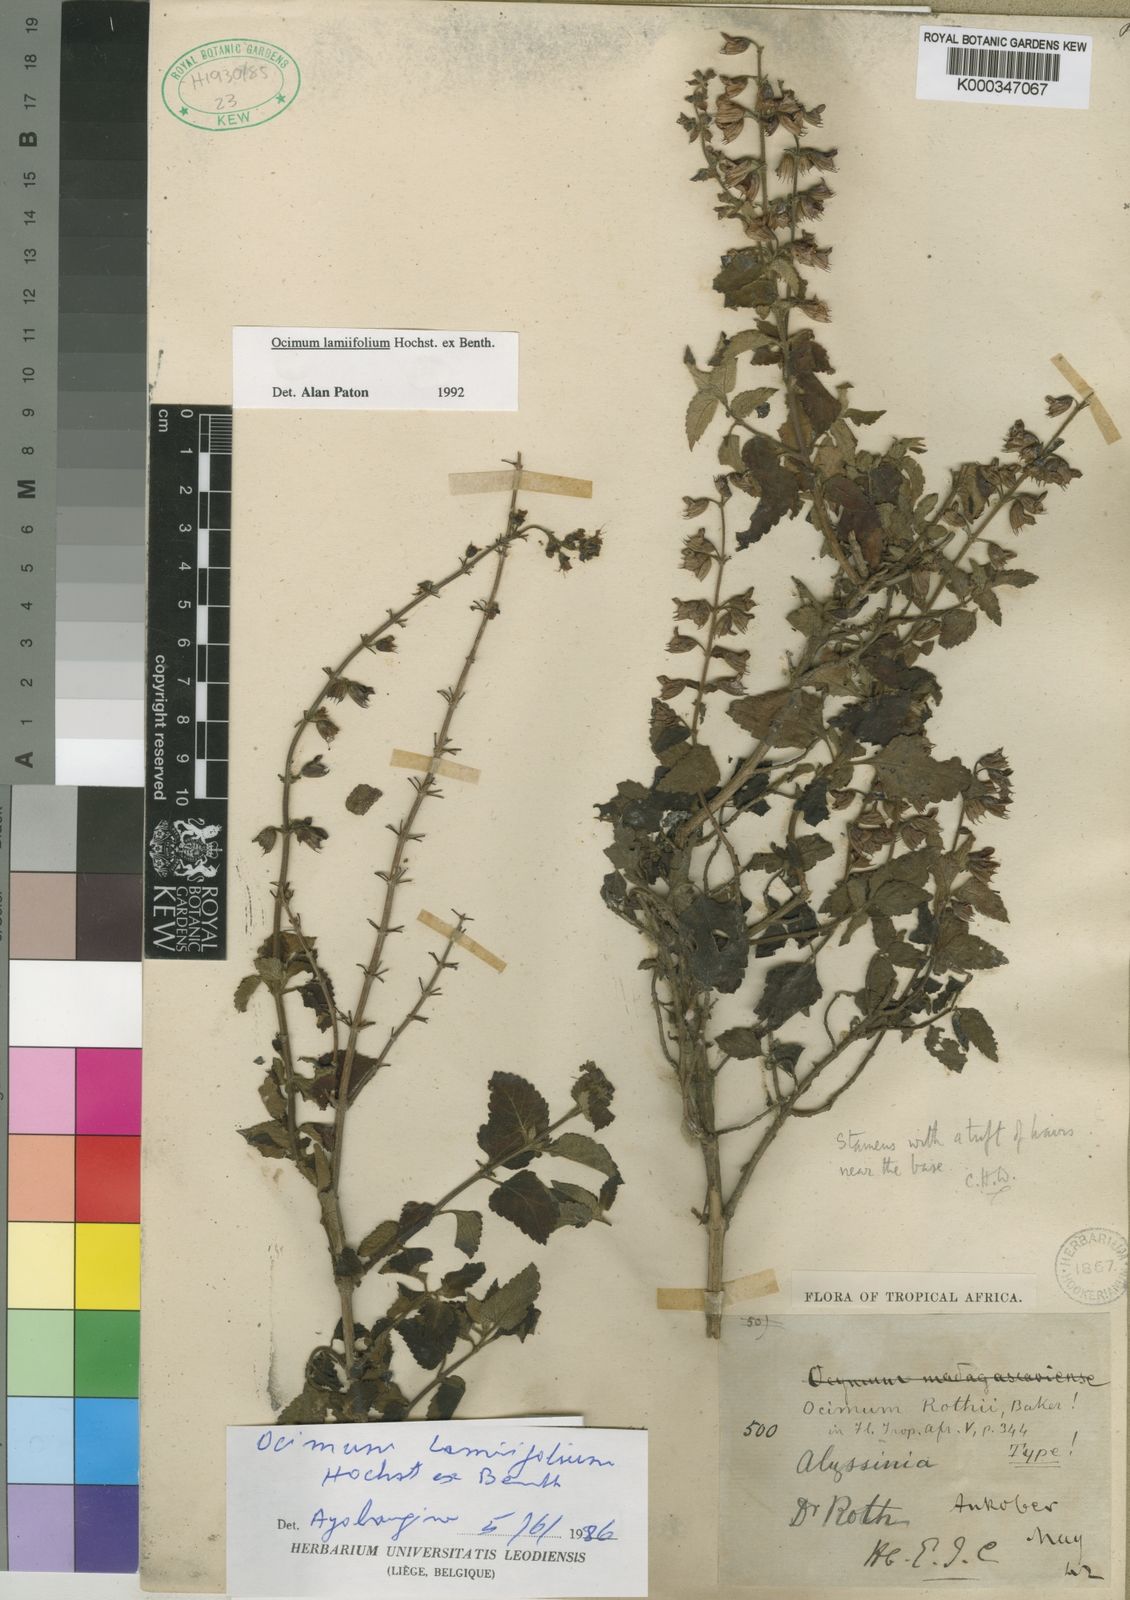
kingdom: Plantae
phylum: Tracheophyta
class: Magnoliopsida
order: Lamiales
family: Lamiaceae
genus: Ocimum
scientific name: Ocimum lamiifolium
